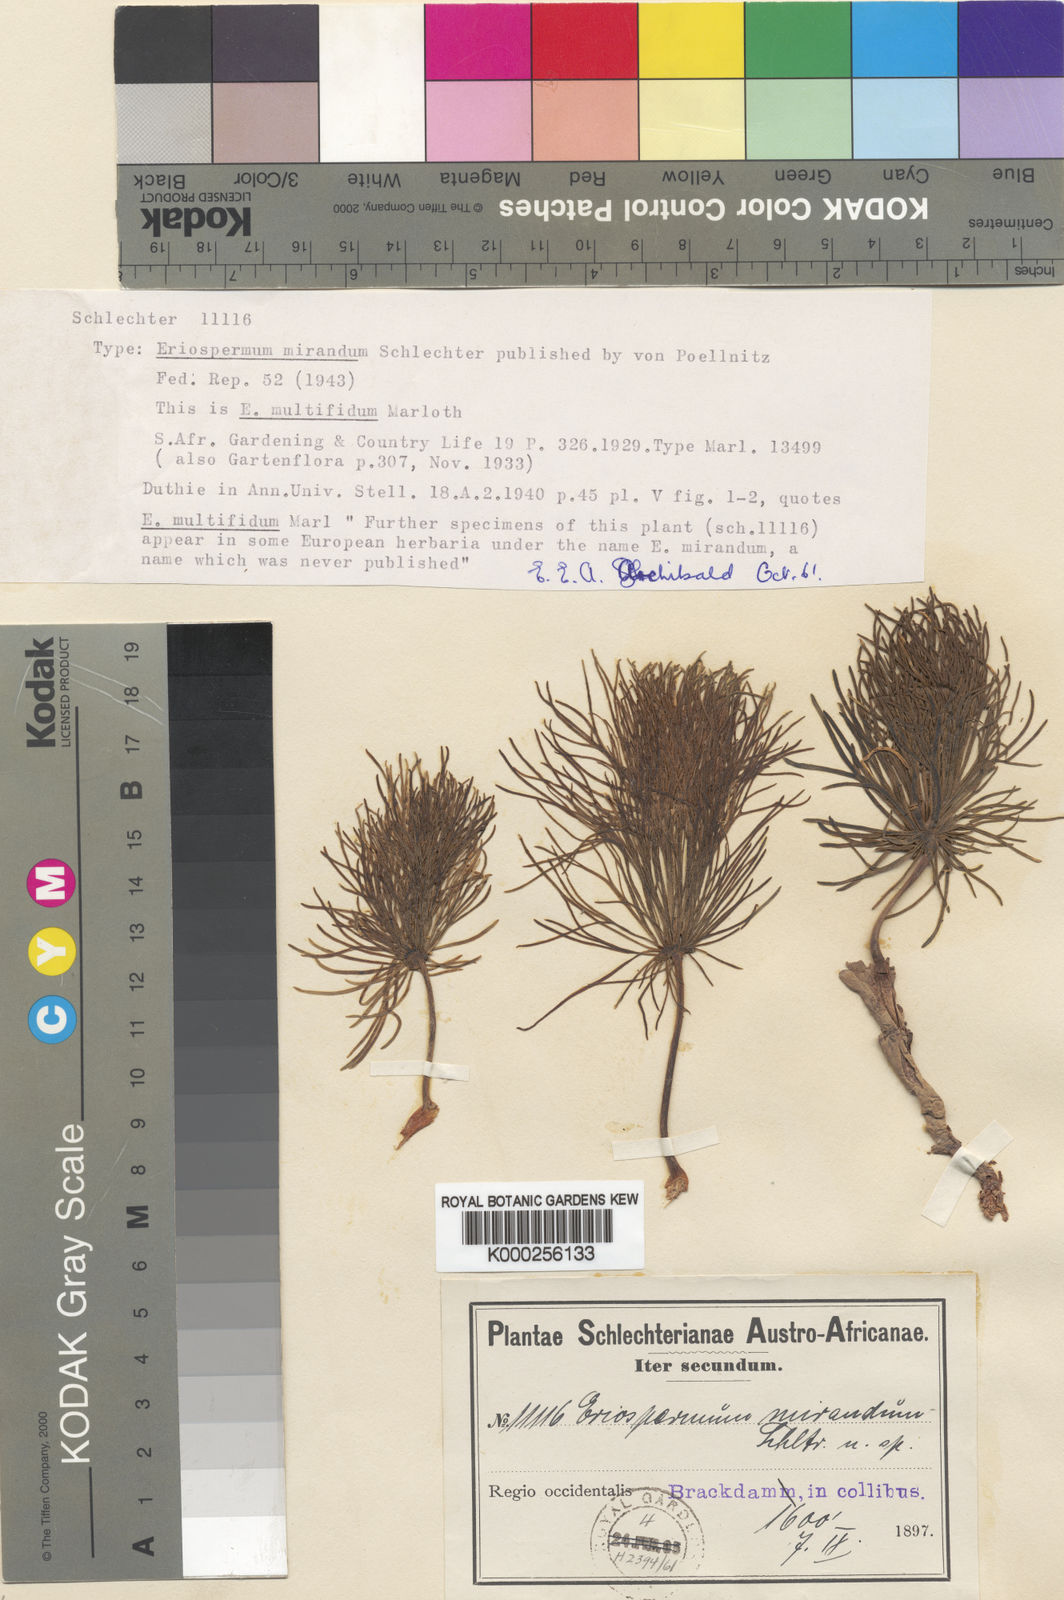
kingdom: Plantae
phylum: Tracheophyta
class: Liliopsida
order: Asparagales
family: Asparagaceae
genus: Eriospermum
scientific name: Eriospermum multifidum
